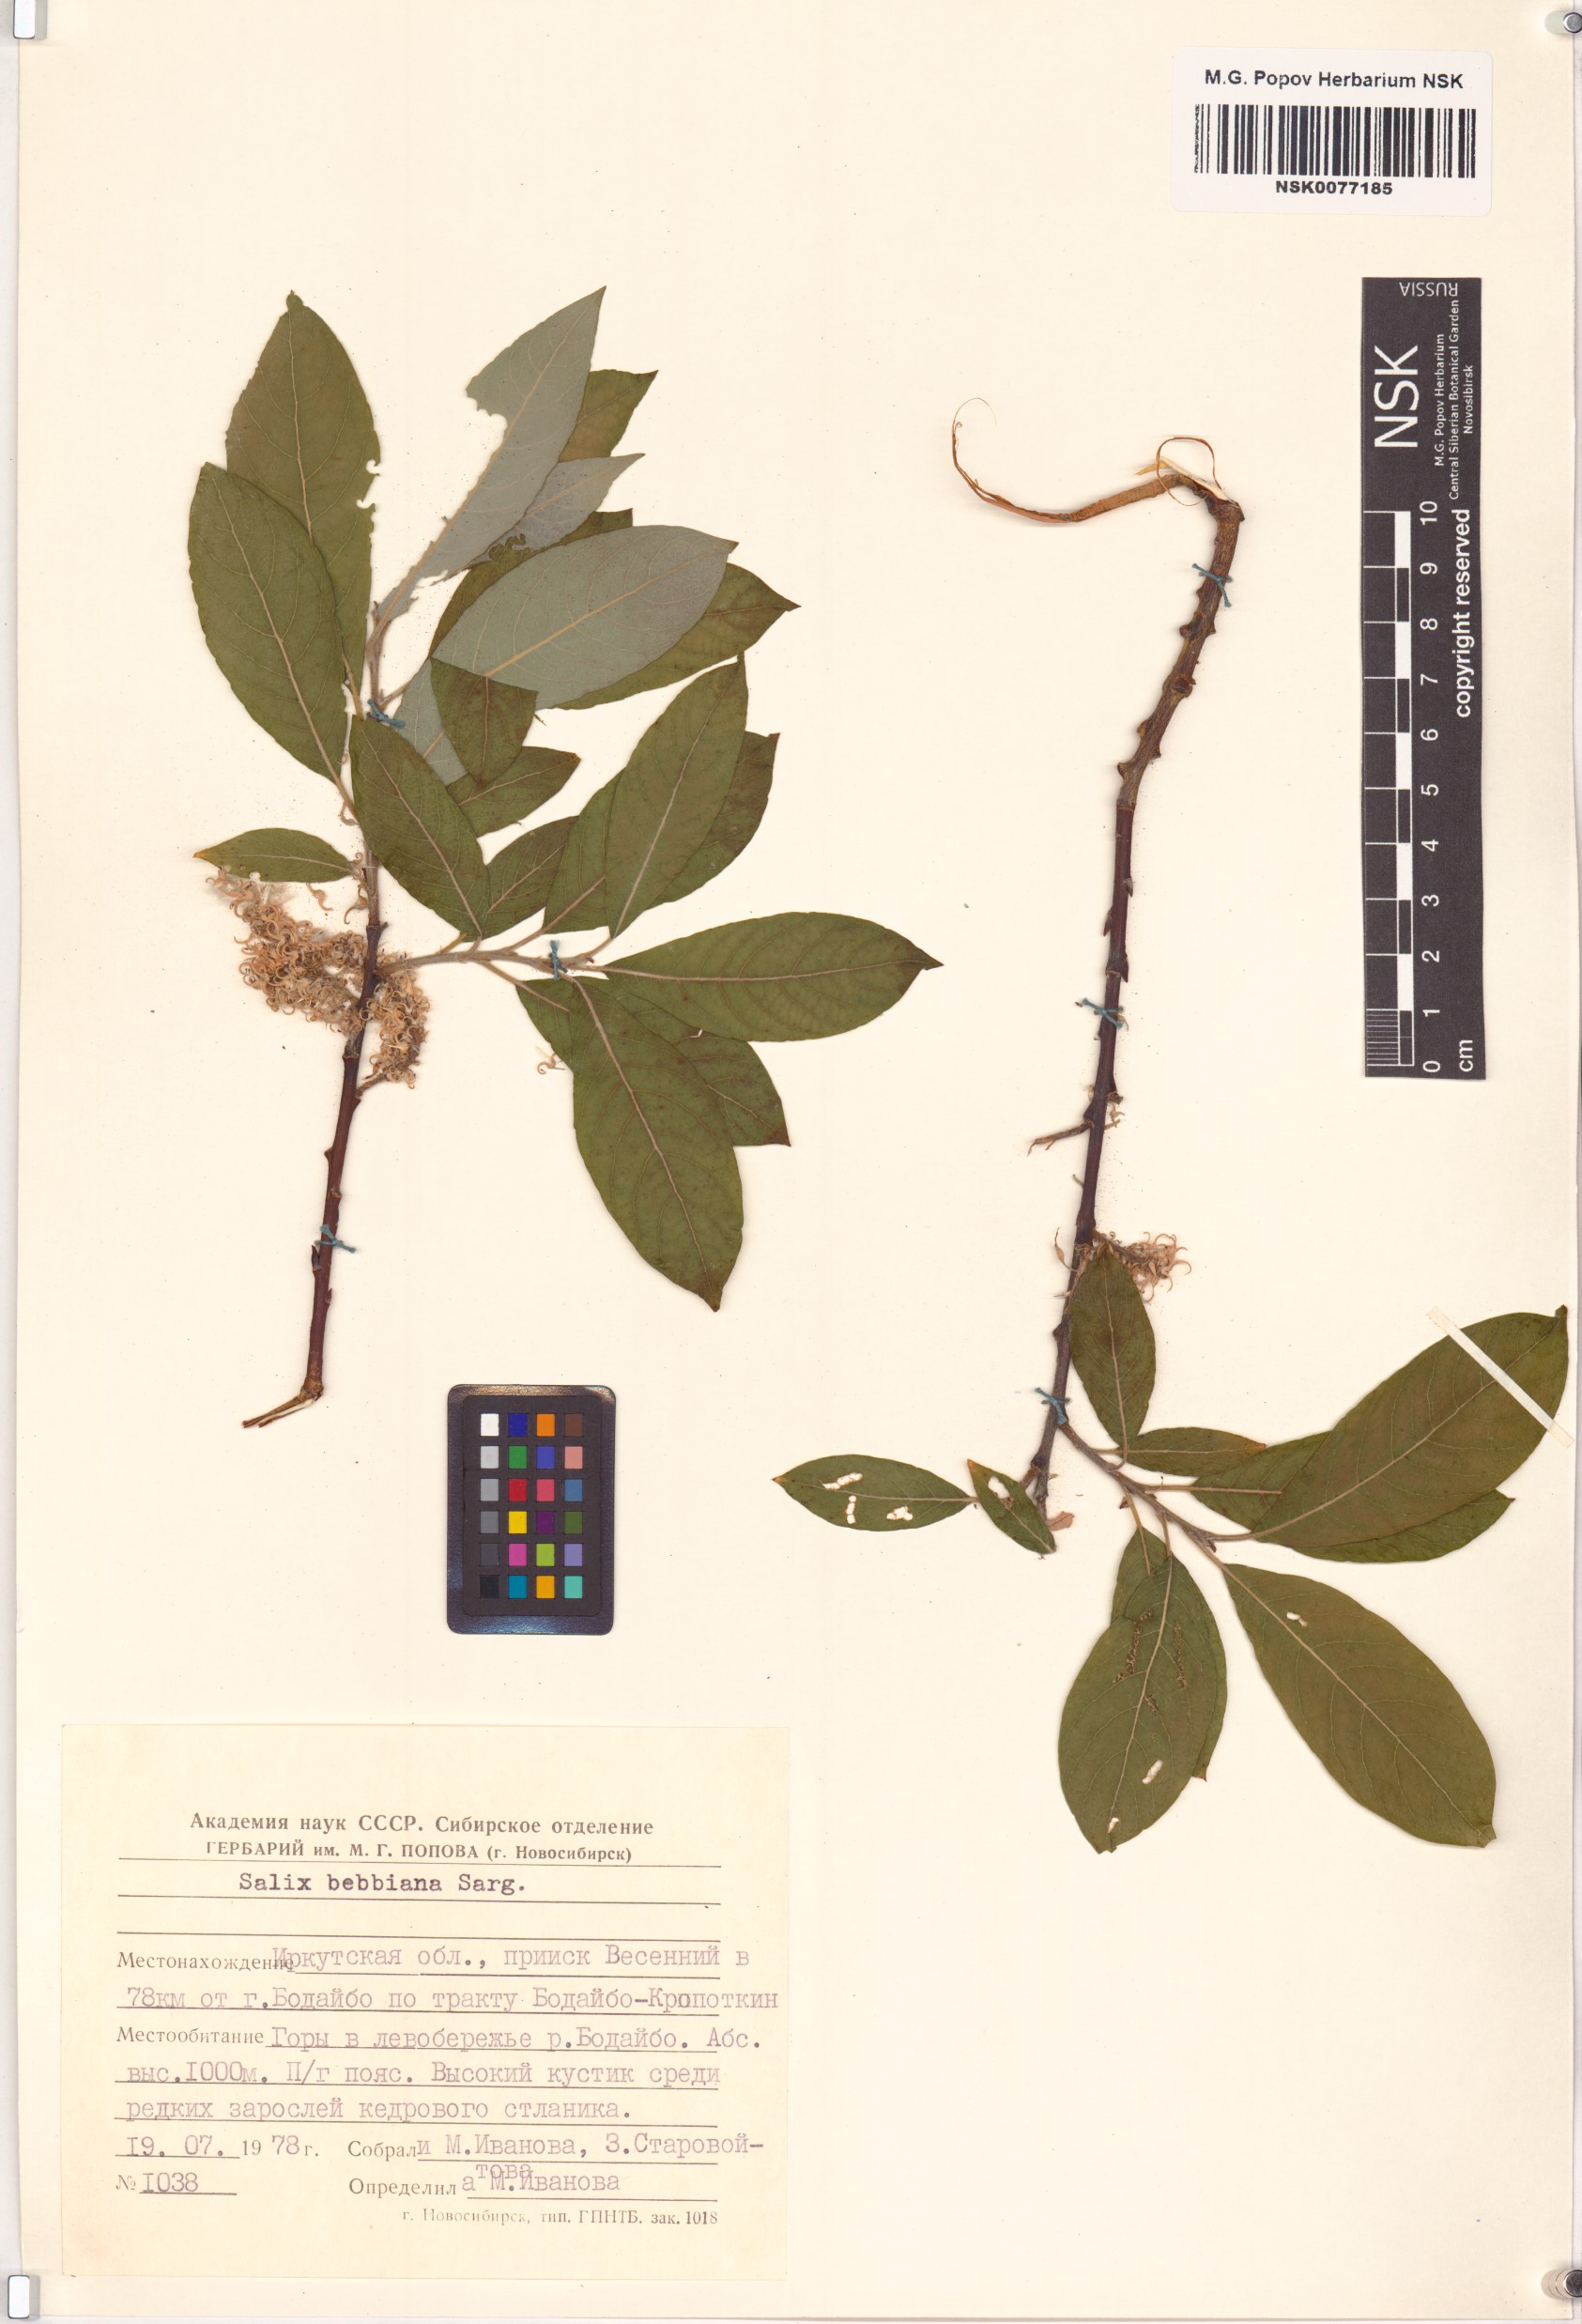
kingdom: Plantae
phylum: Tracheophyta
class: Magnoliopsida
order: Malpighiales
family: Salicaceae
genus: Salix
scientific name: Salix bebbiana
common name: Bebb's willow
